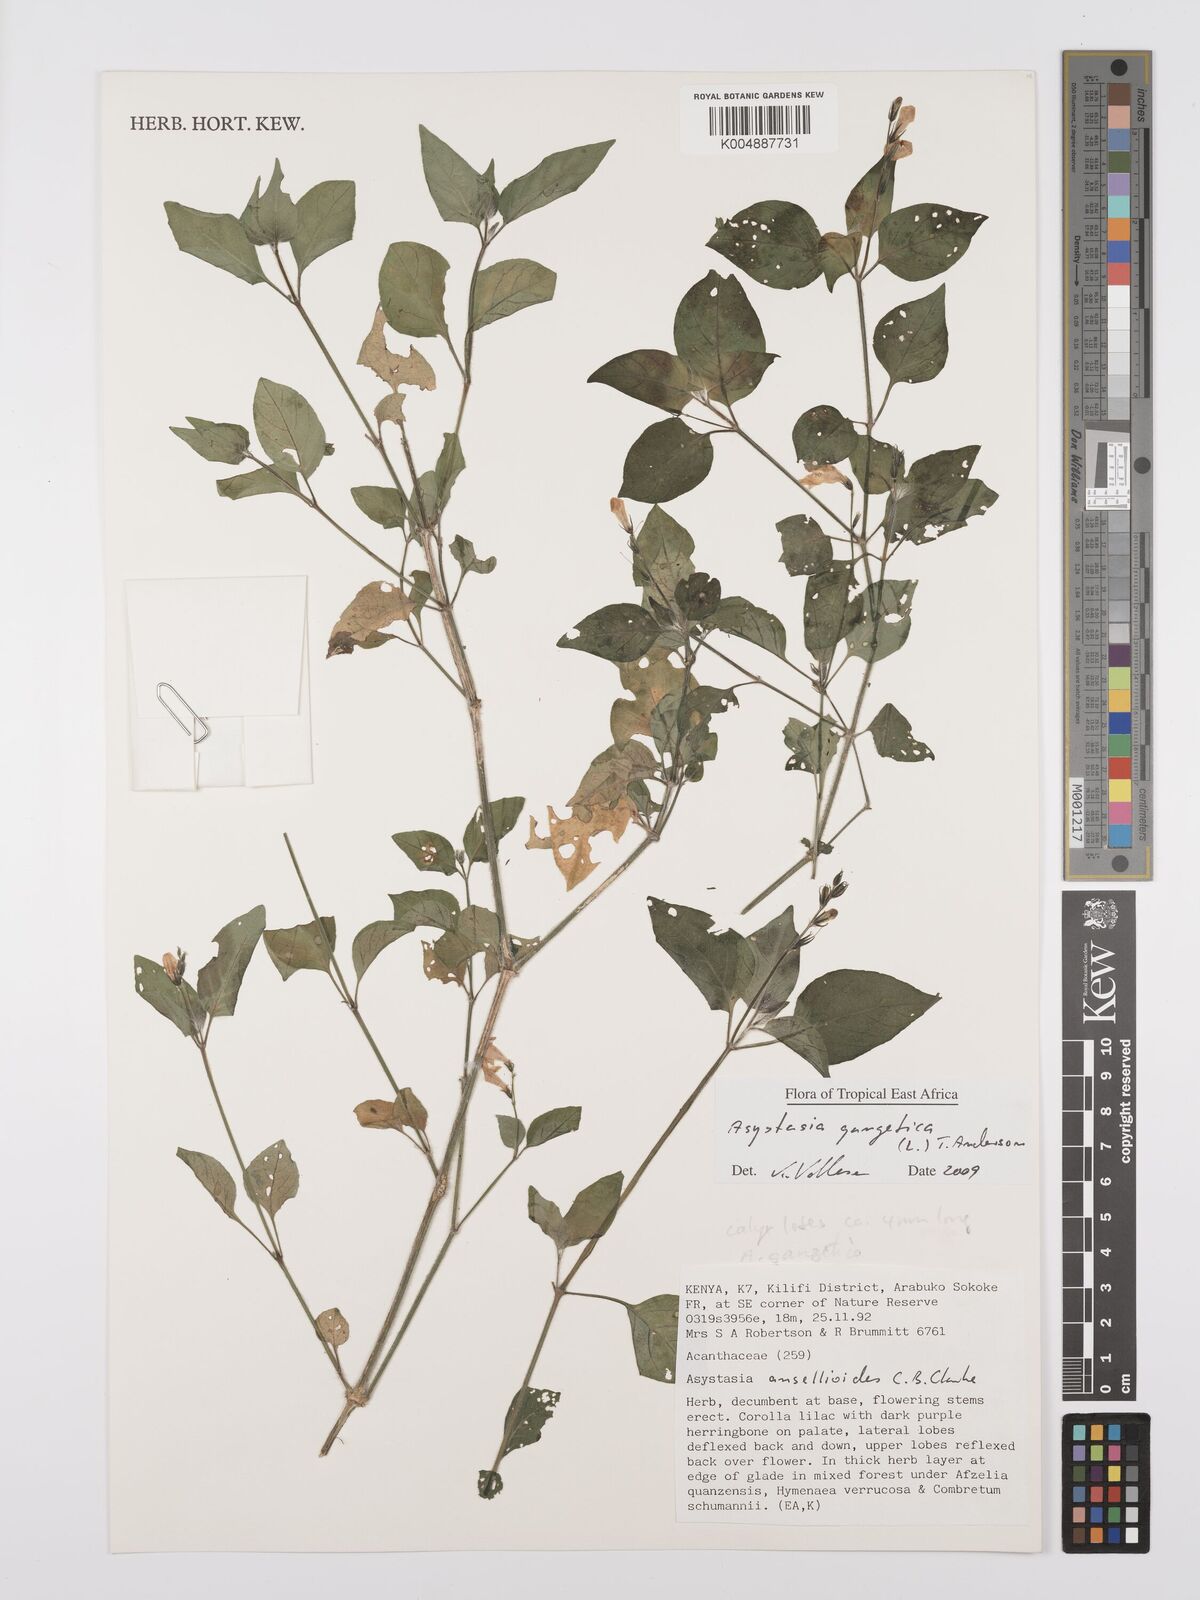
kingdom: Plantae
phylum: Tracheophyta
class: Magnoliopsida
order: Lamiales
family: Acanthaceae
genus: Asystasia
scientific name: Asystasia gangetica
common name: Chinese violet
